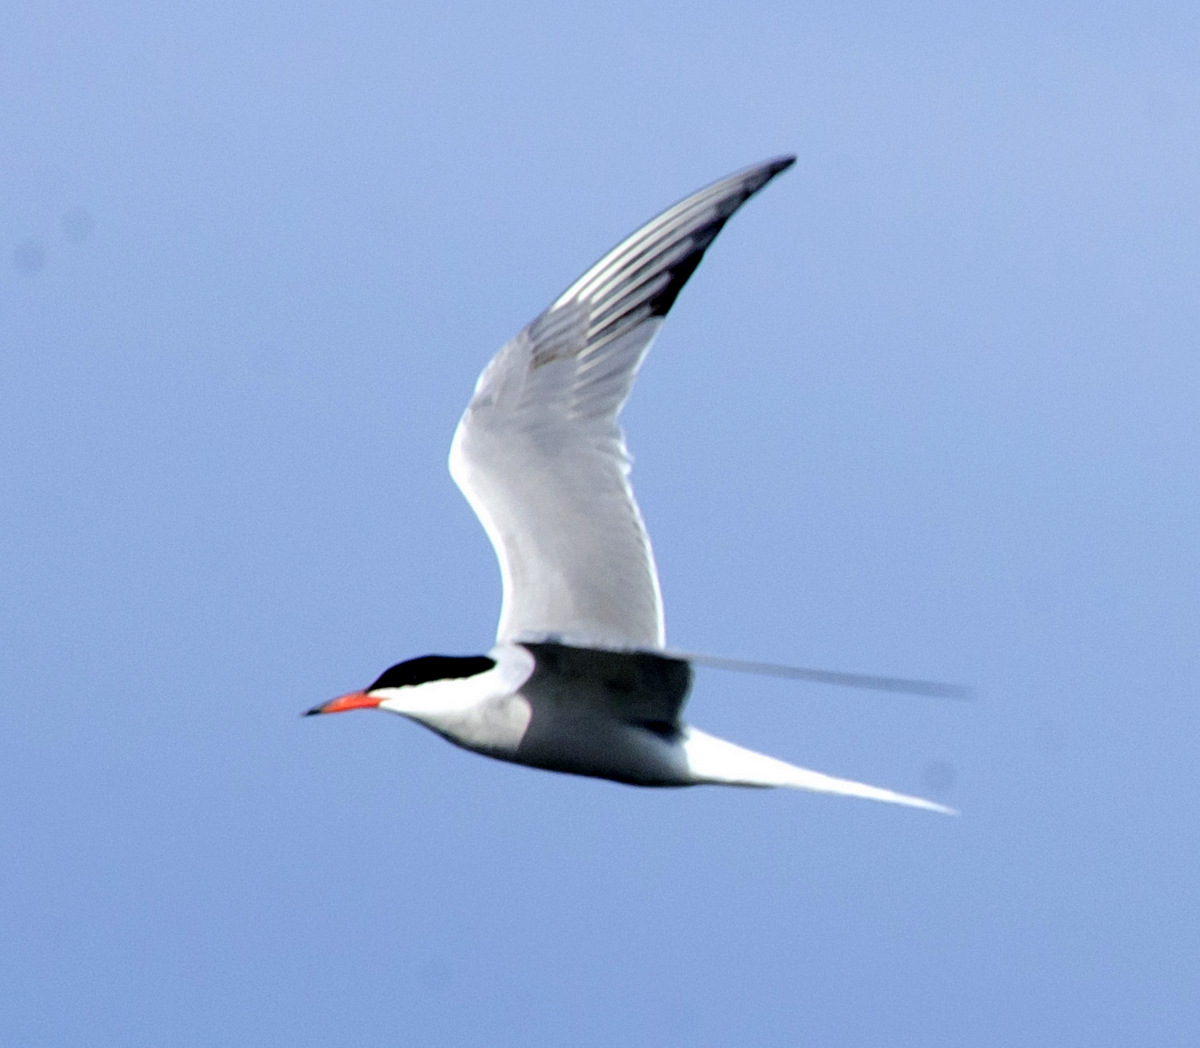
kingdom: Animalia
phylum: Chordata
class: Aves
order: Charadriiformes
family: Laridae
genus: Sterna
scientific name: Sterna hirundo
